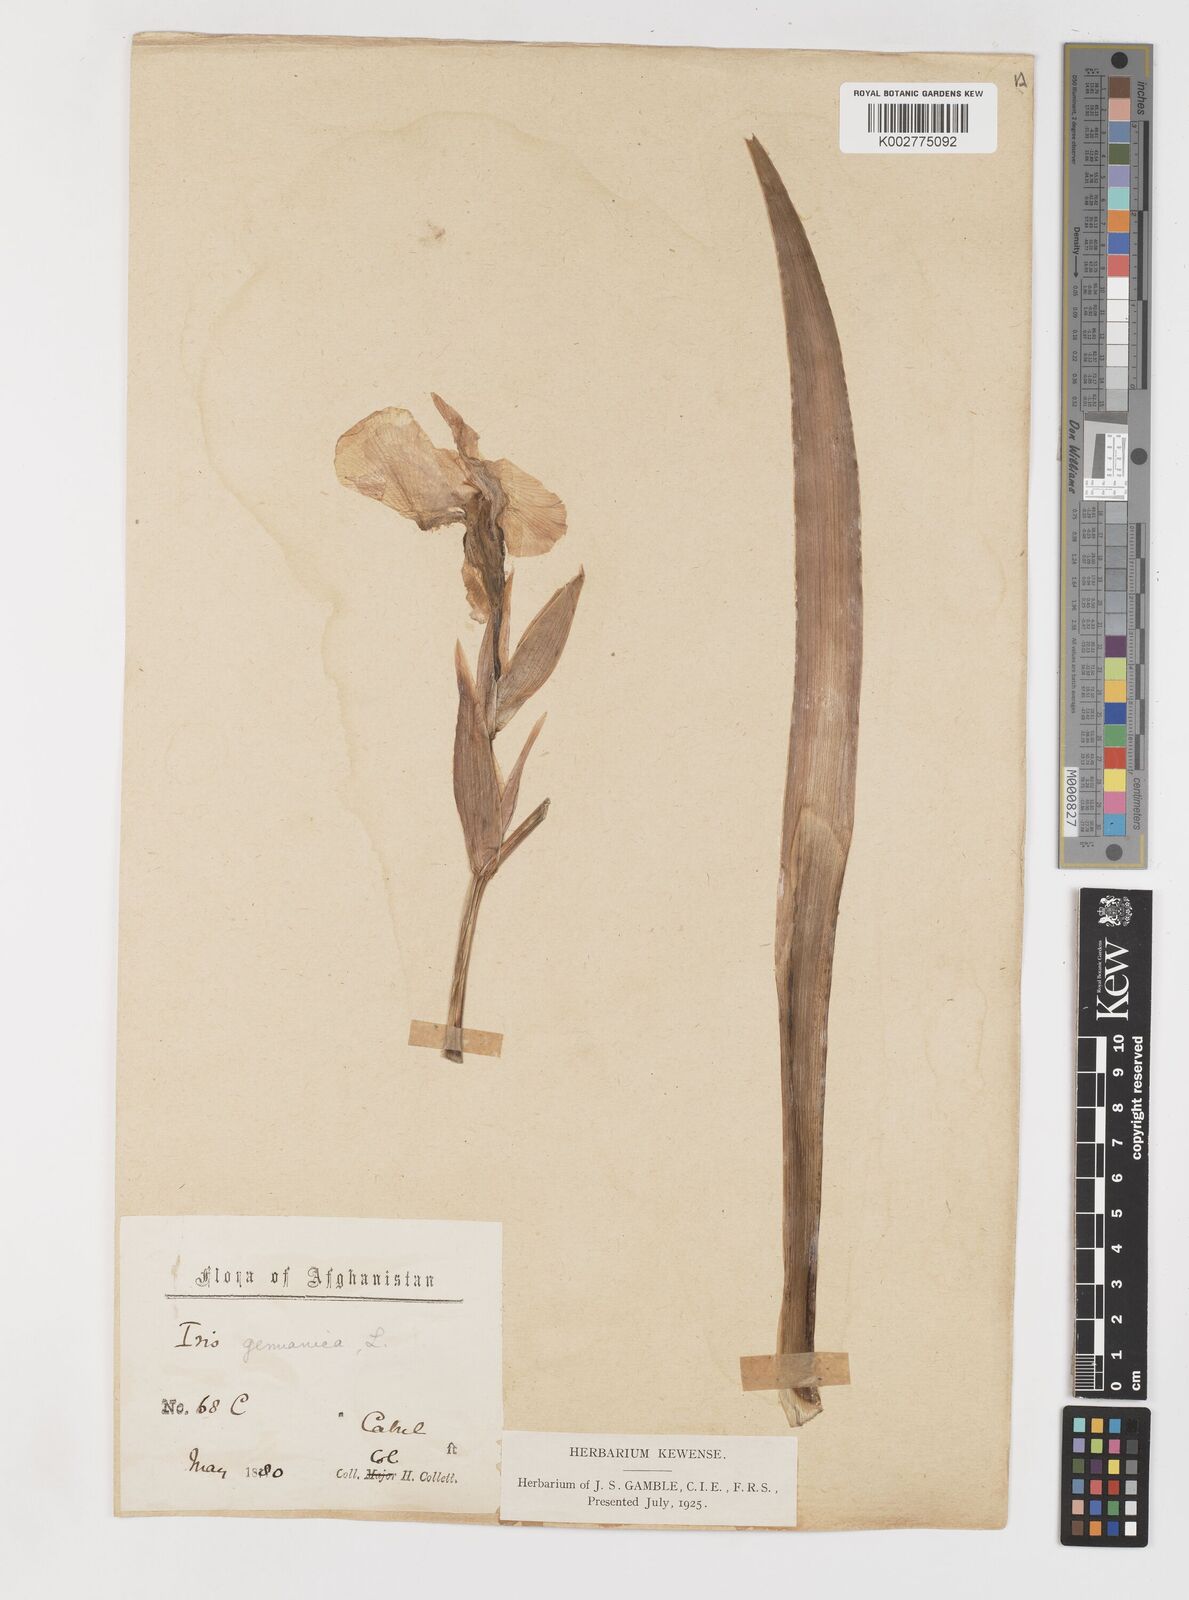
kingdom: Plantae
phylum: Tracheophyta
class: Liliopsida
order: Asparagales
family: Iridaceae
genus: Iris
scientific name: Iris kashmiriana
